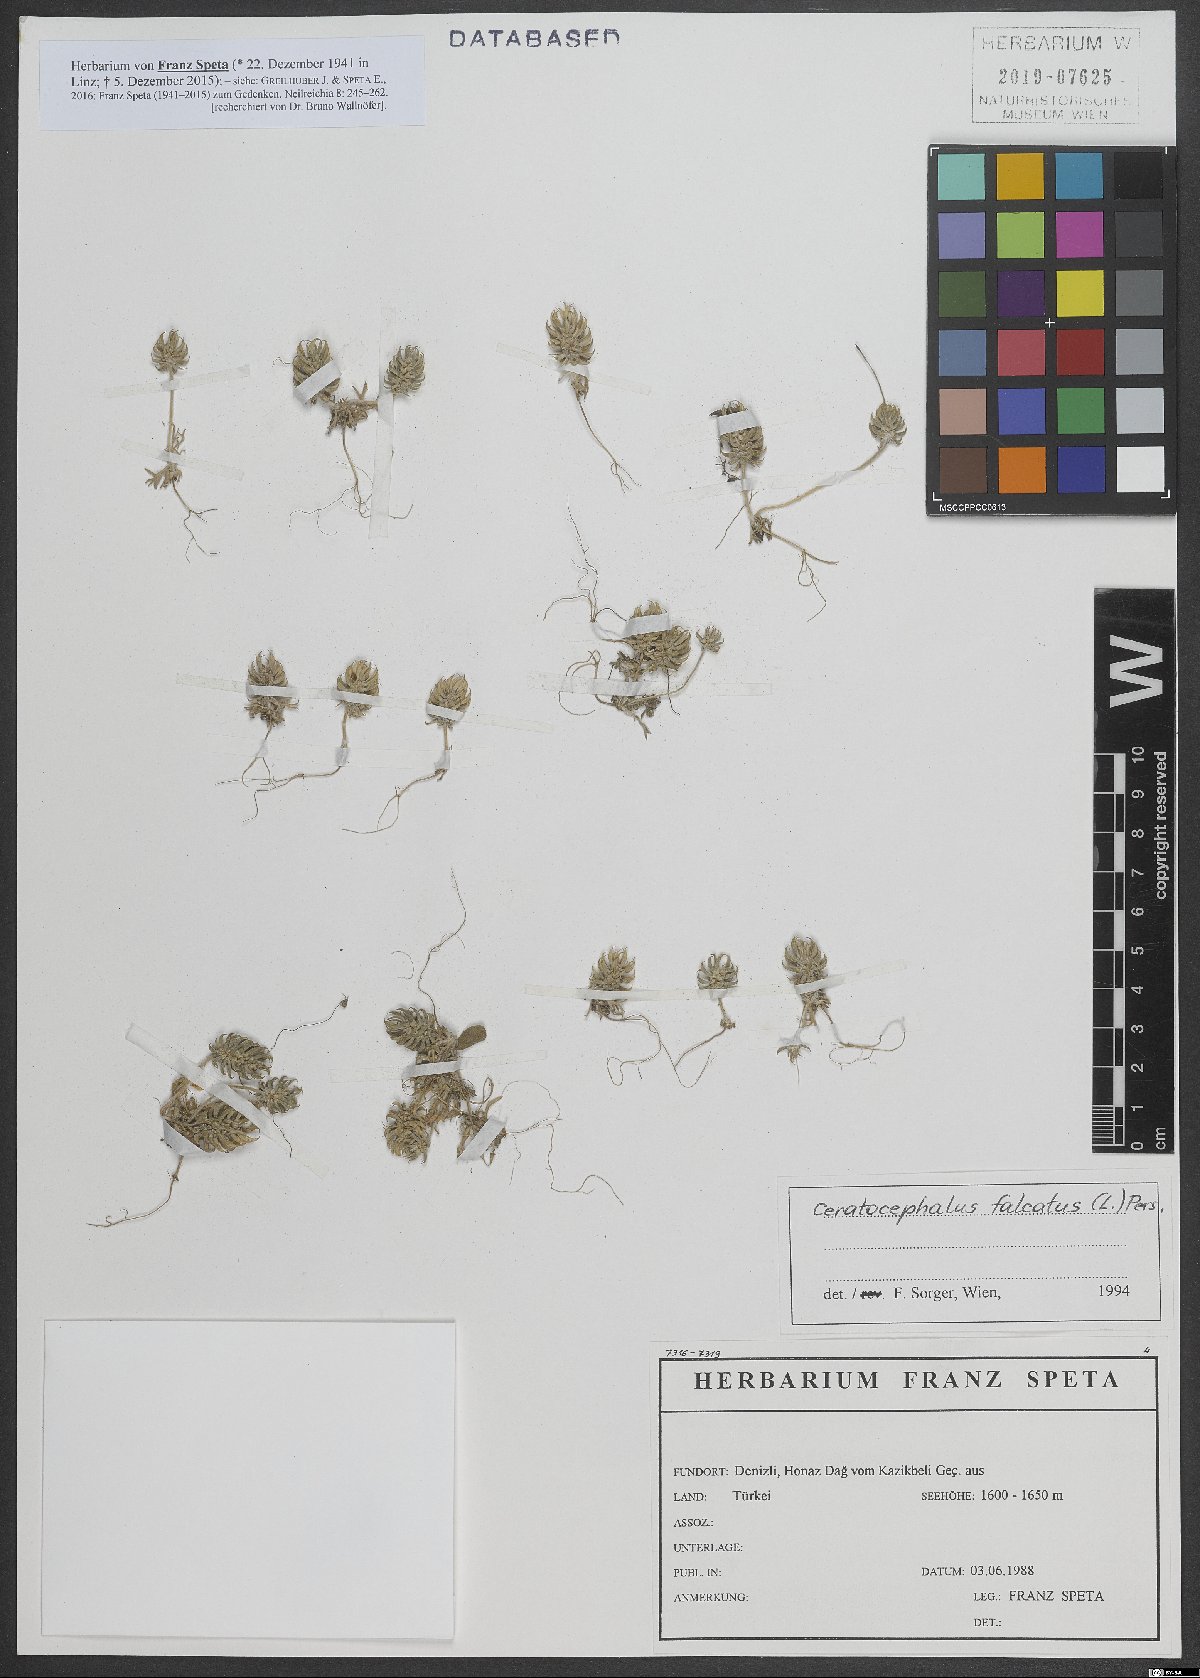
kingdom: Plantae
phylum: Tracheophyta
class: Magnoliopsida
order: Ranunculales
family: Ranunculaceae
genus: Ceratocephala
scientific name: Ceratocephala falcata
